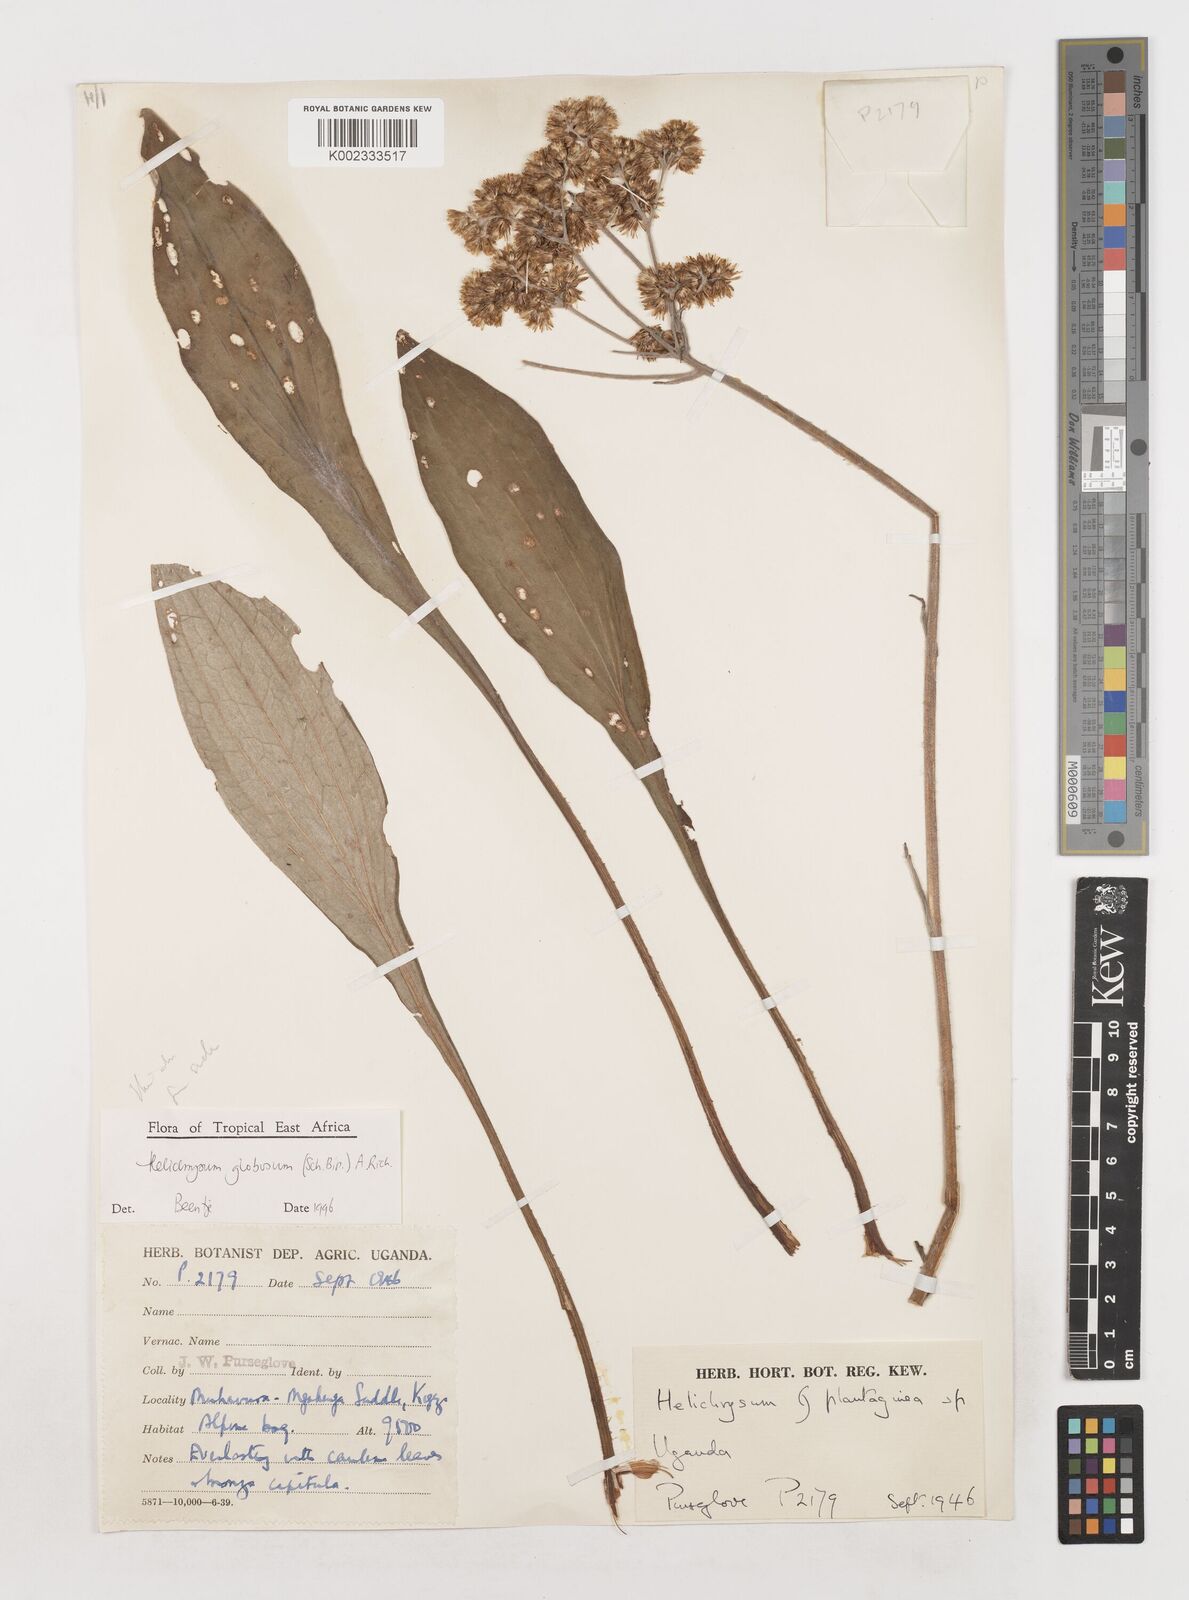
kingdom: Plantae
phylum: Tracheophyta
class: Magnoliopsida
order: Asterales
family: Asteraceae
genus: Helichrysum
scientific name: Helichrysum globosum
